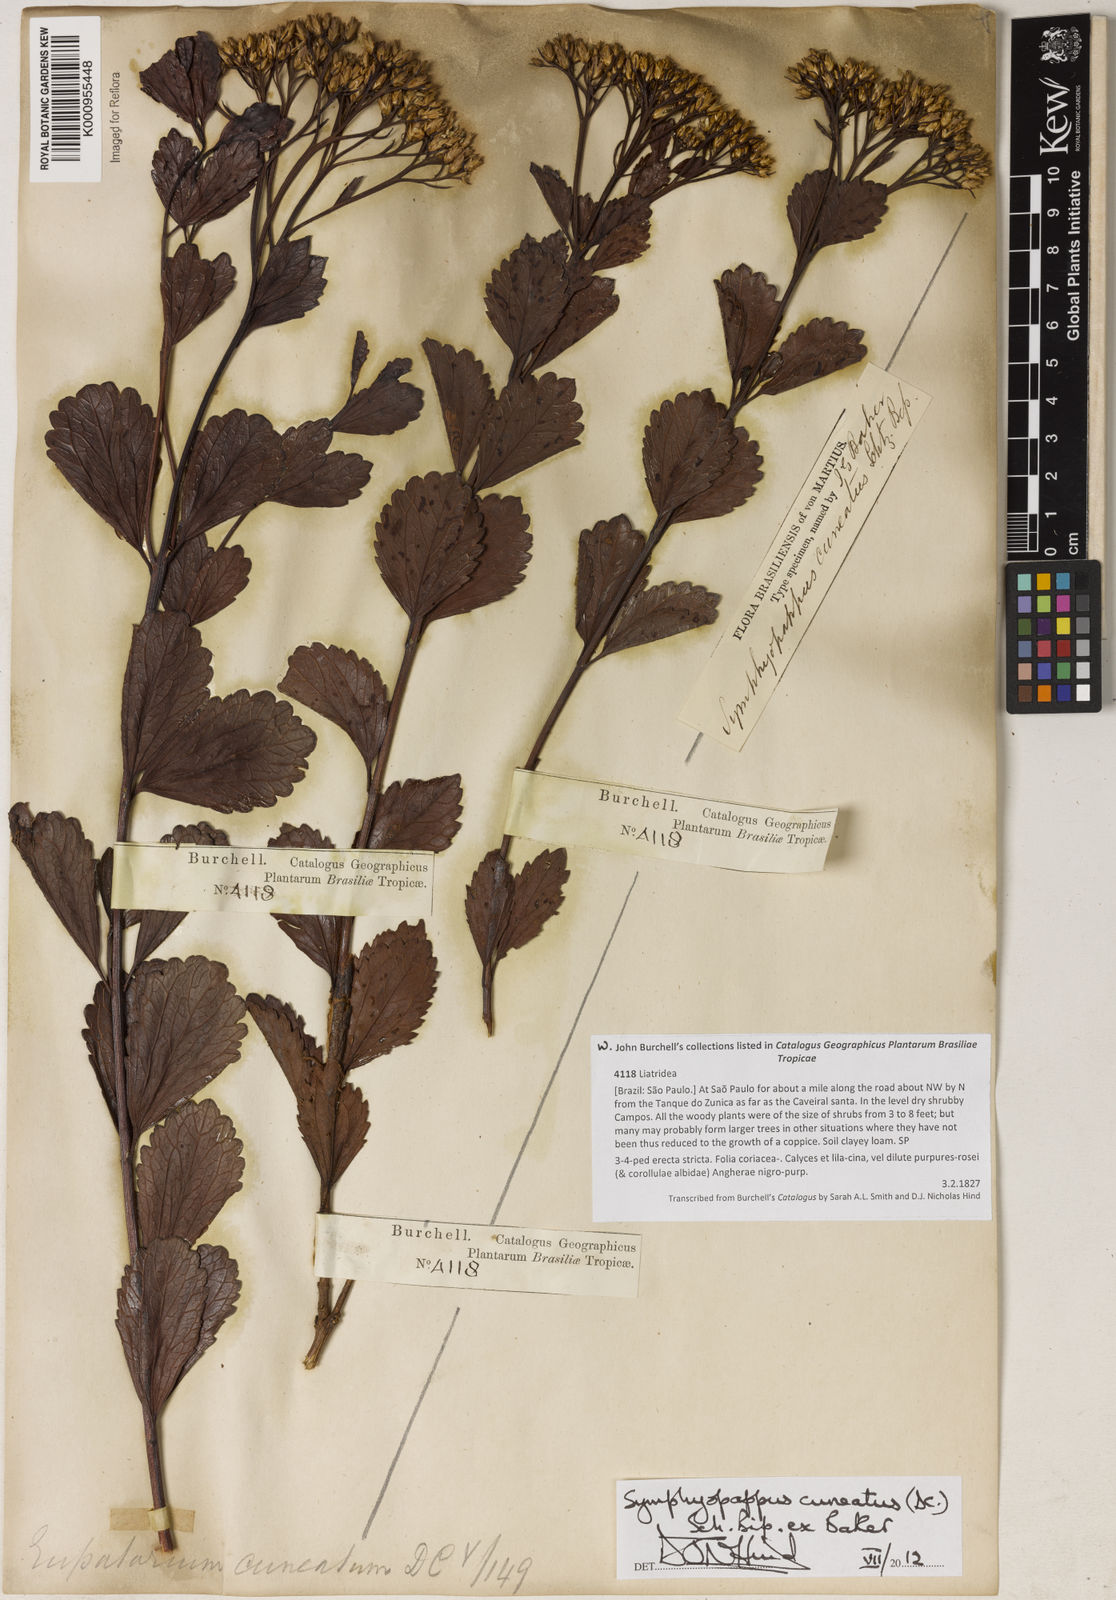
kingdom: Plantae
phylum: Tracheophyta
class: Magnoliopsida
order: Asterales
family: Asteraceae
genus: Symphyopappus
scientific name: Symphyopappus cuneatus
